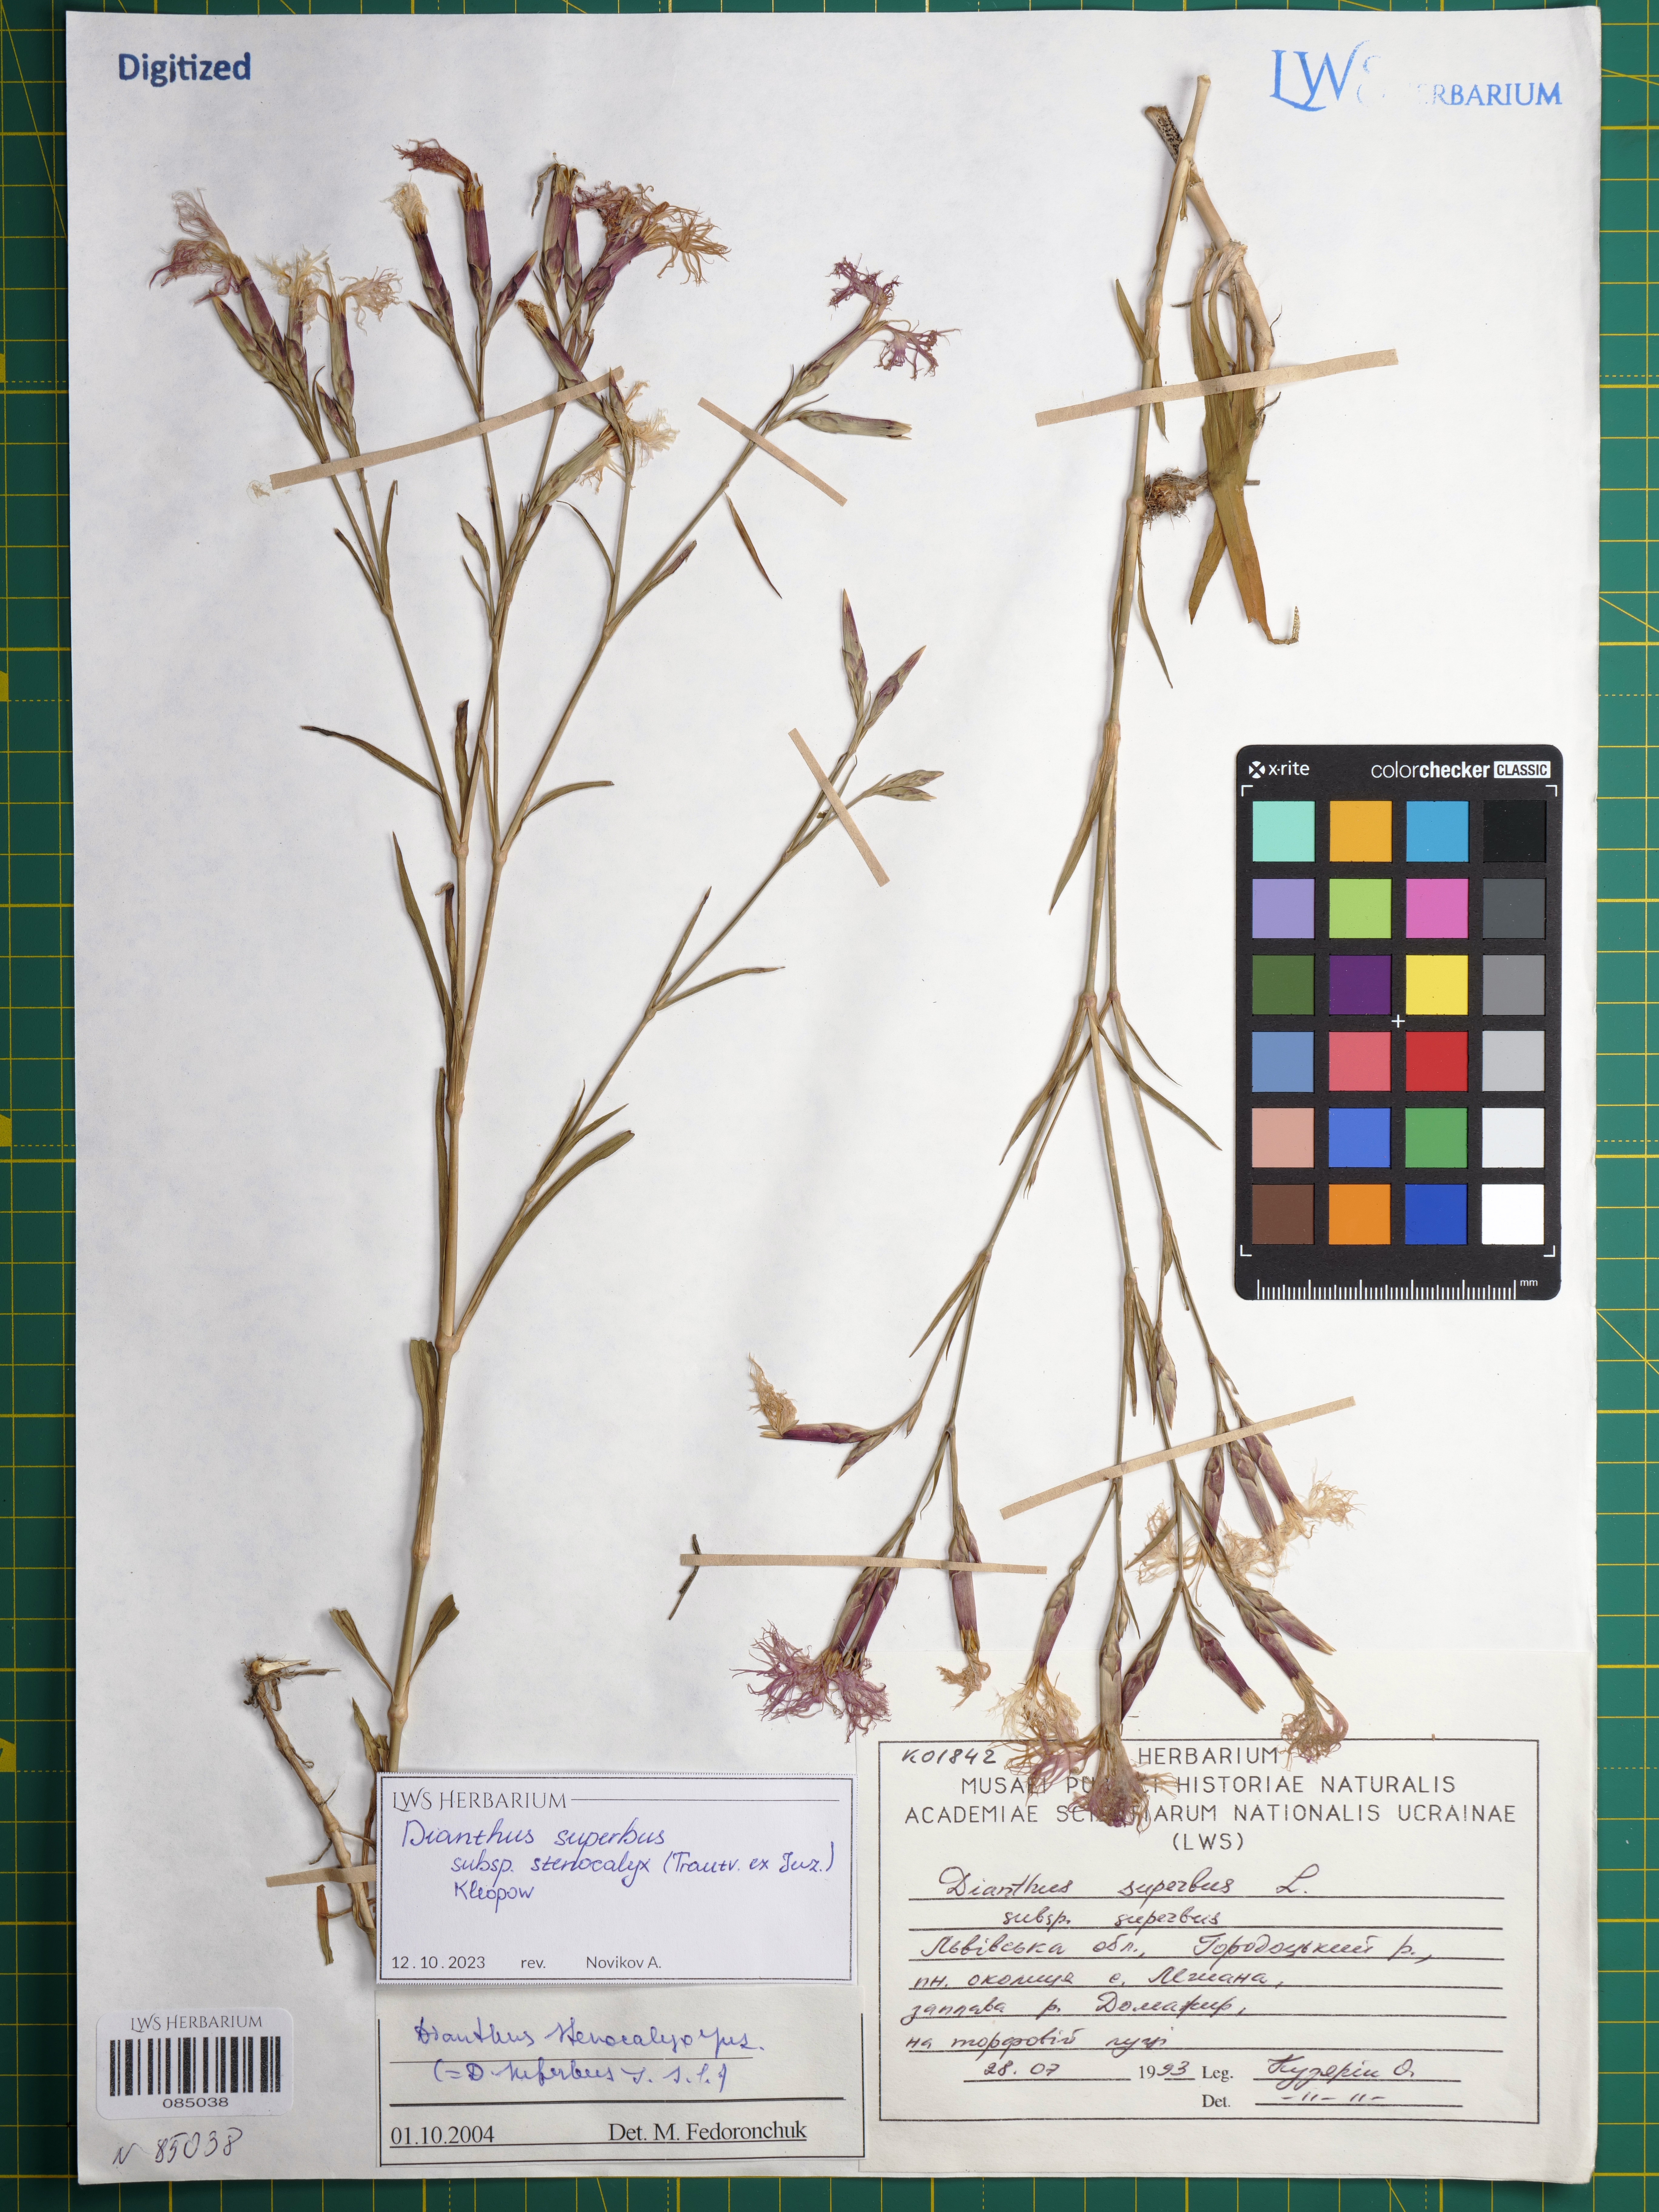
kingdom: Plantae
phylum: Tracheophyta
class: Magnoliopsida
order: Caryophyllales
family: Caryophyllaceae
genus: Dianthus
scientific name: Dianthus superbus
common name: Fringed pink
